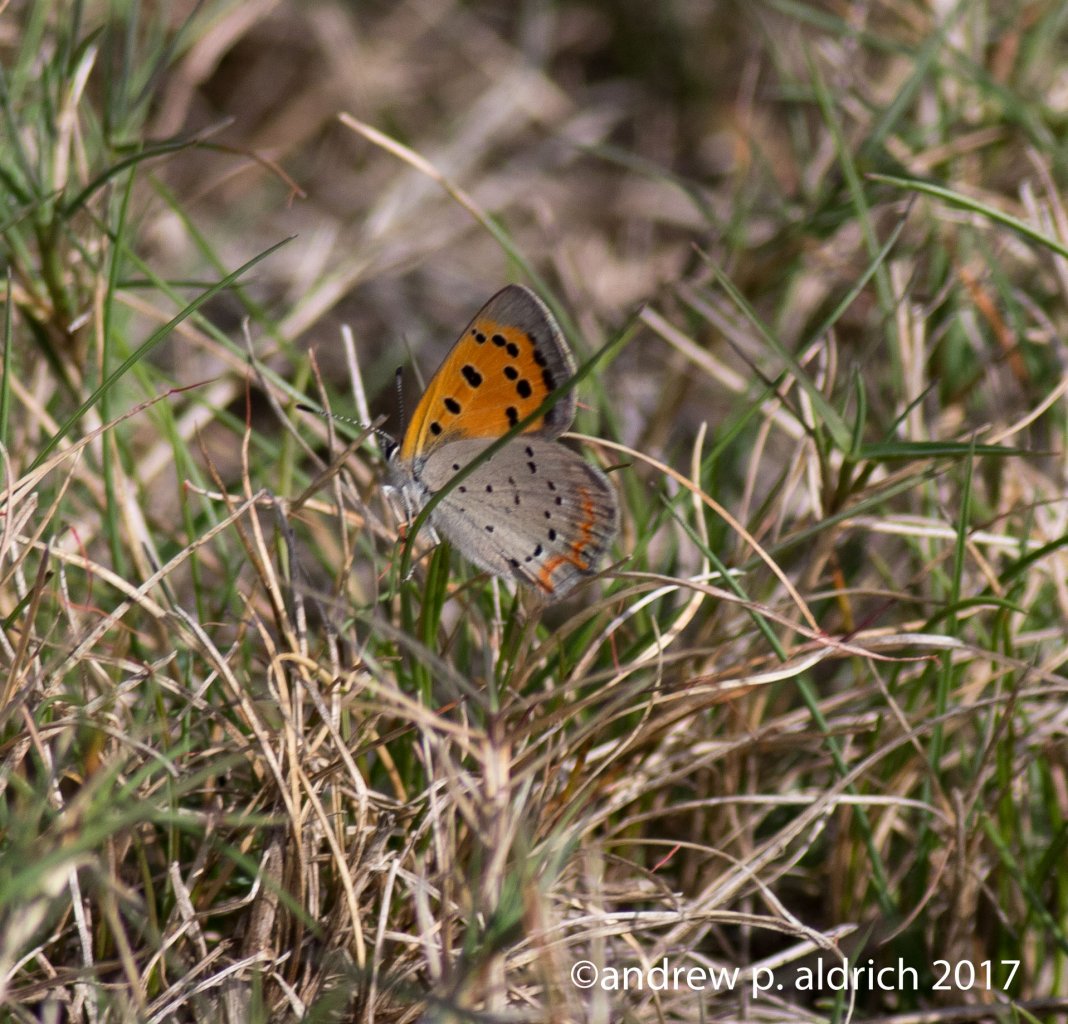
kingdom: Animalia
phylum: Arthropoda
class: Insecta
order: Lepidoptera
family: Lycaenidae
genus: Lycaena
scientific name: Lycaena phlaeas
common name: American Copper
